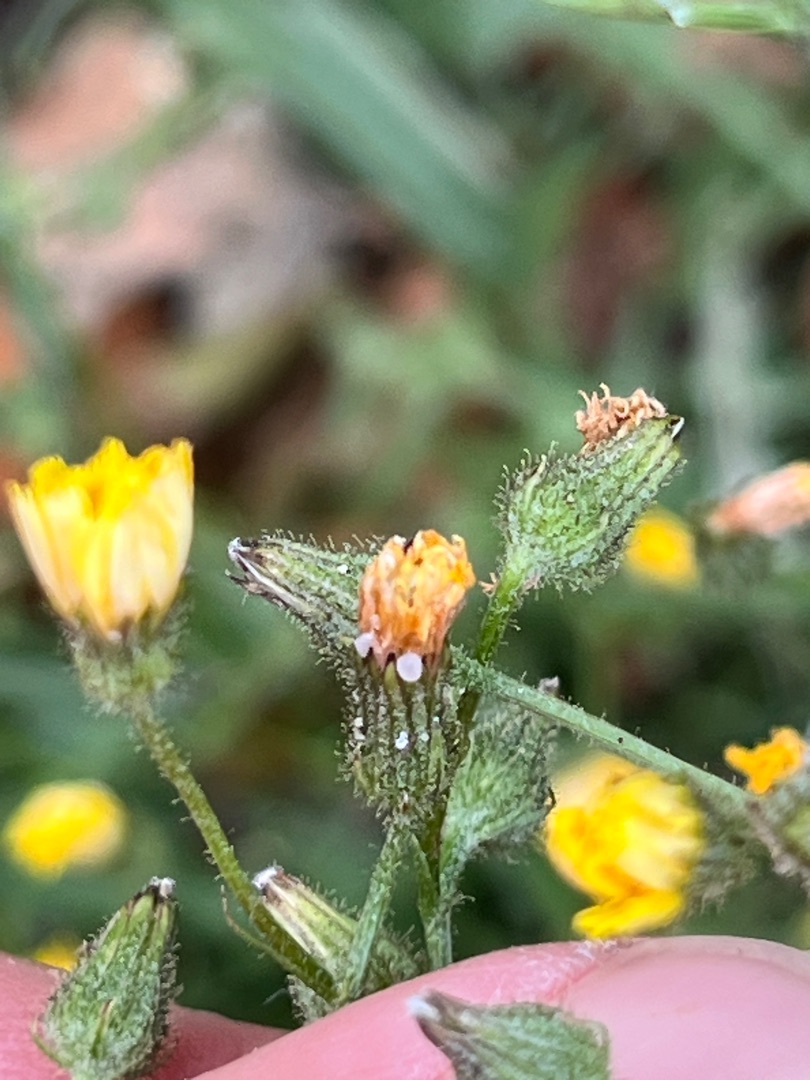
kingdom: Plantae
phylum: Tracheophyta
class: Magnoliopsida
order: Asterales
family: Asteraceae
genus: Crepis
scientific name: Crepis capillaris
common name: Grøn høgeskæg
